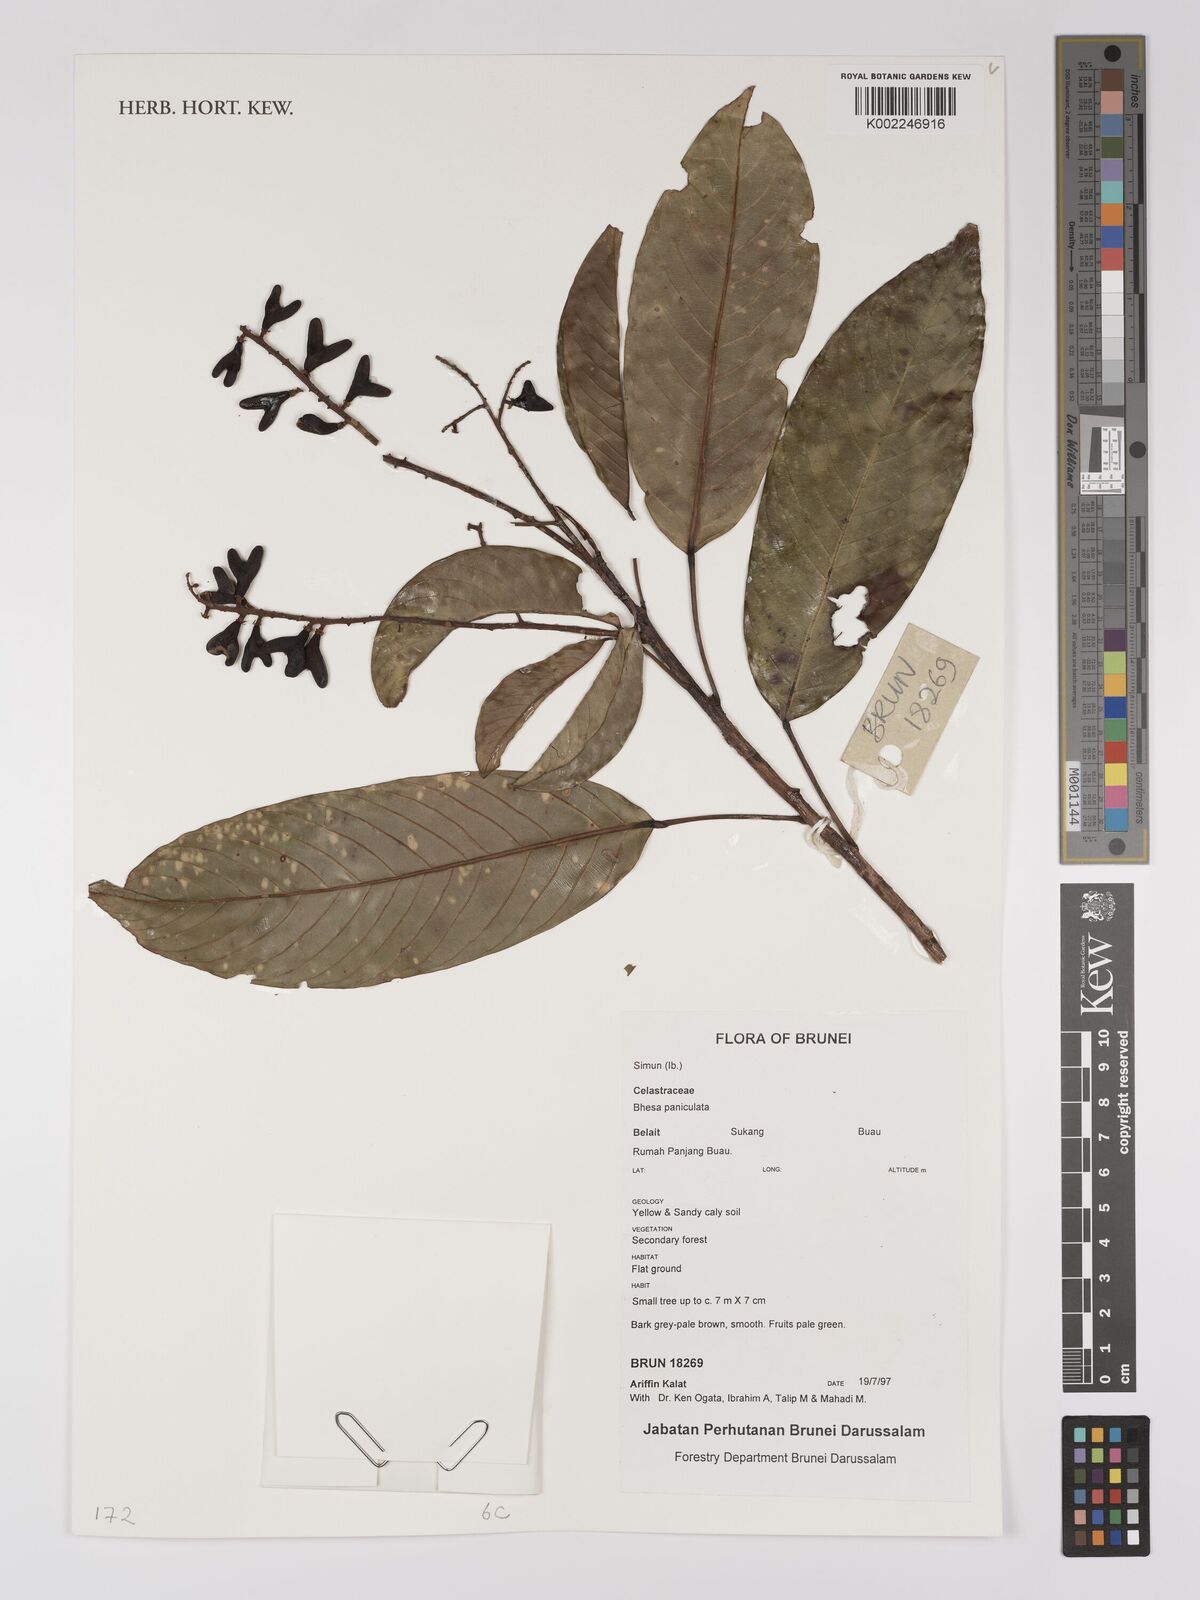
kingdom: Plantae
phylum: Tracheophyta
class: Magnoliopsida
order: Malpighiales
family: Centroplacaceae
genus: Bhesa
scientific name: Bhesa paniculata
